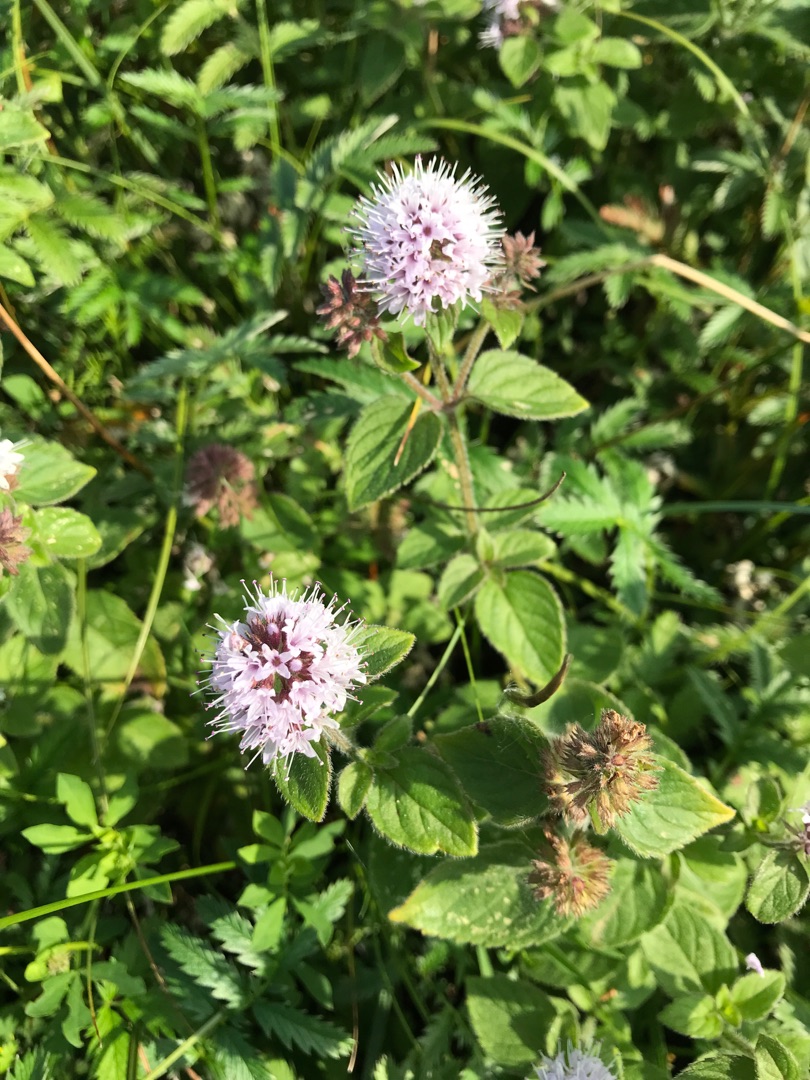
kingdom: Plantae
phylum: Tracheophyta
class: Magnoliopsida
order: Lamiales
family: Lamiaceae
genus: Mentha
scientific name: Mentha aquatica
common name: Vand-mynte
